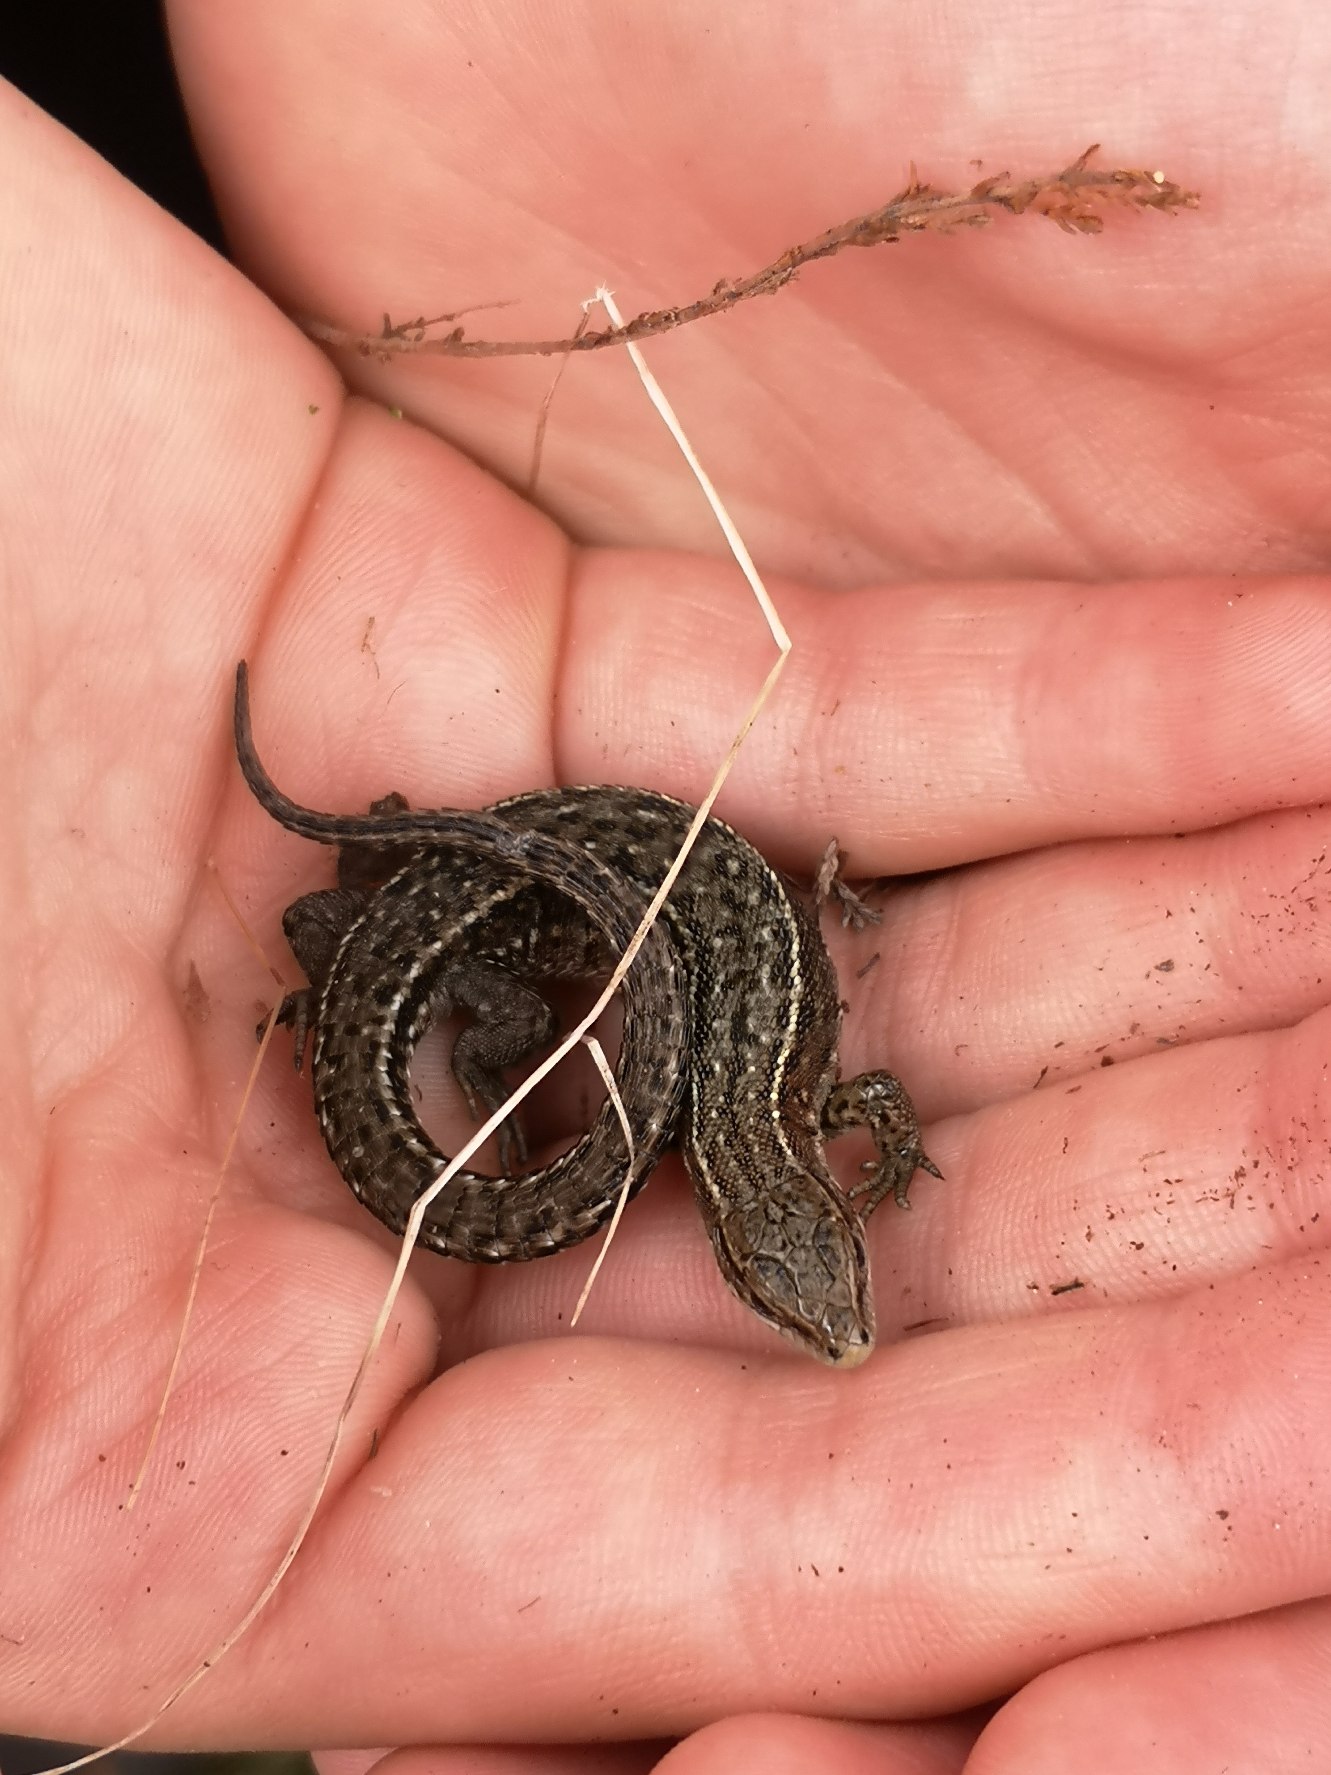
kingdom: Animalia
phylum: Chordata
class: Squamata
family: Lacertidae
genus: Zootoca
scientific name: Zootoca vivipara
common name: Skovfirben
